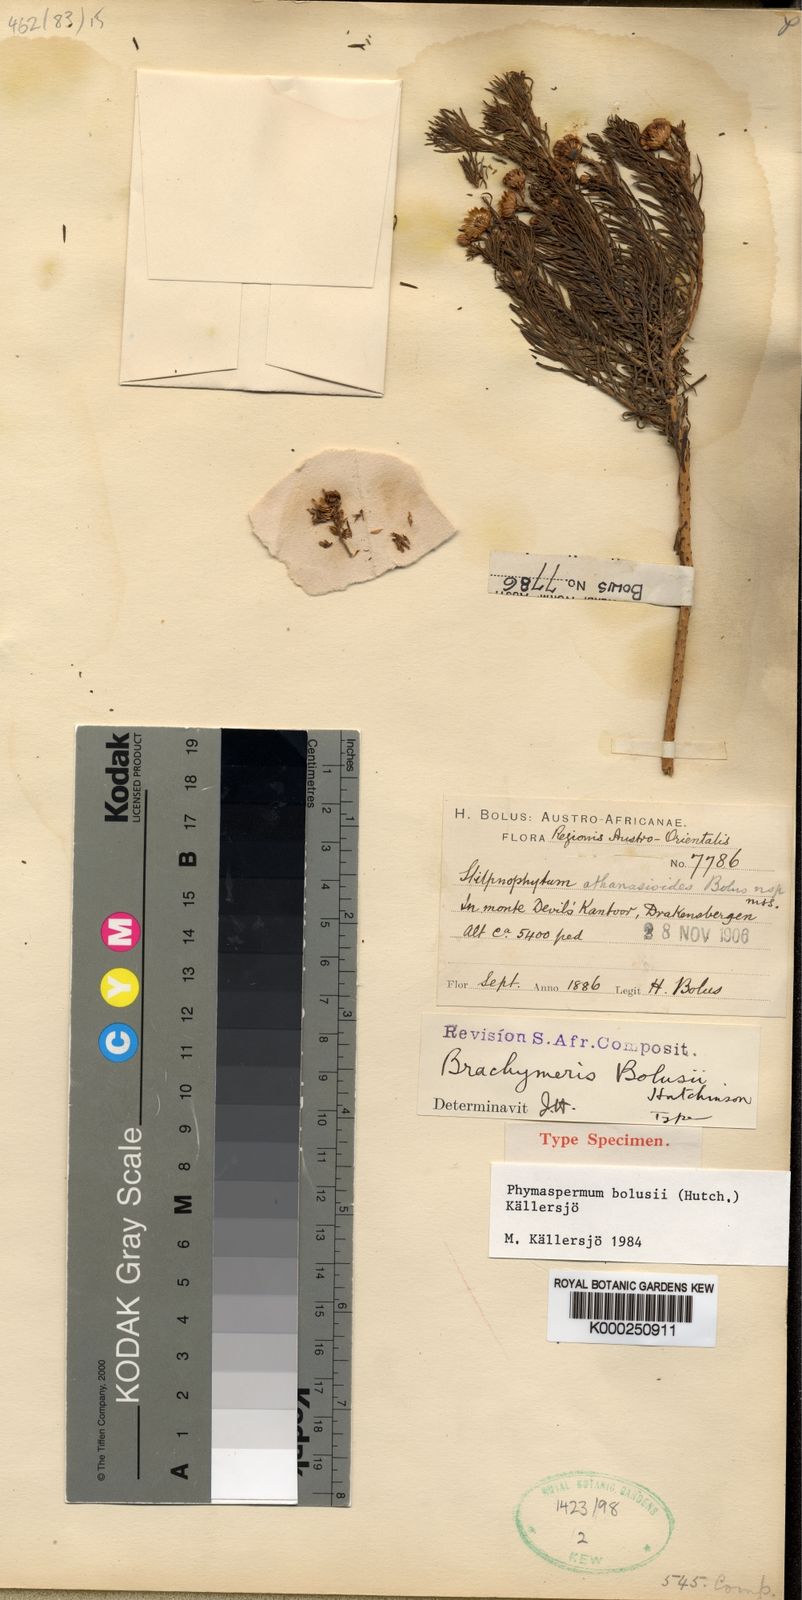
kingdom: Plantae
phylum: Tracheophyta
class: Magnoliopsida
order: Asterales
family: Asteraceae
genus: Phymaspermum
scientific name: Phymaspermum
